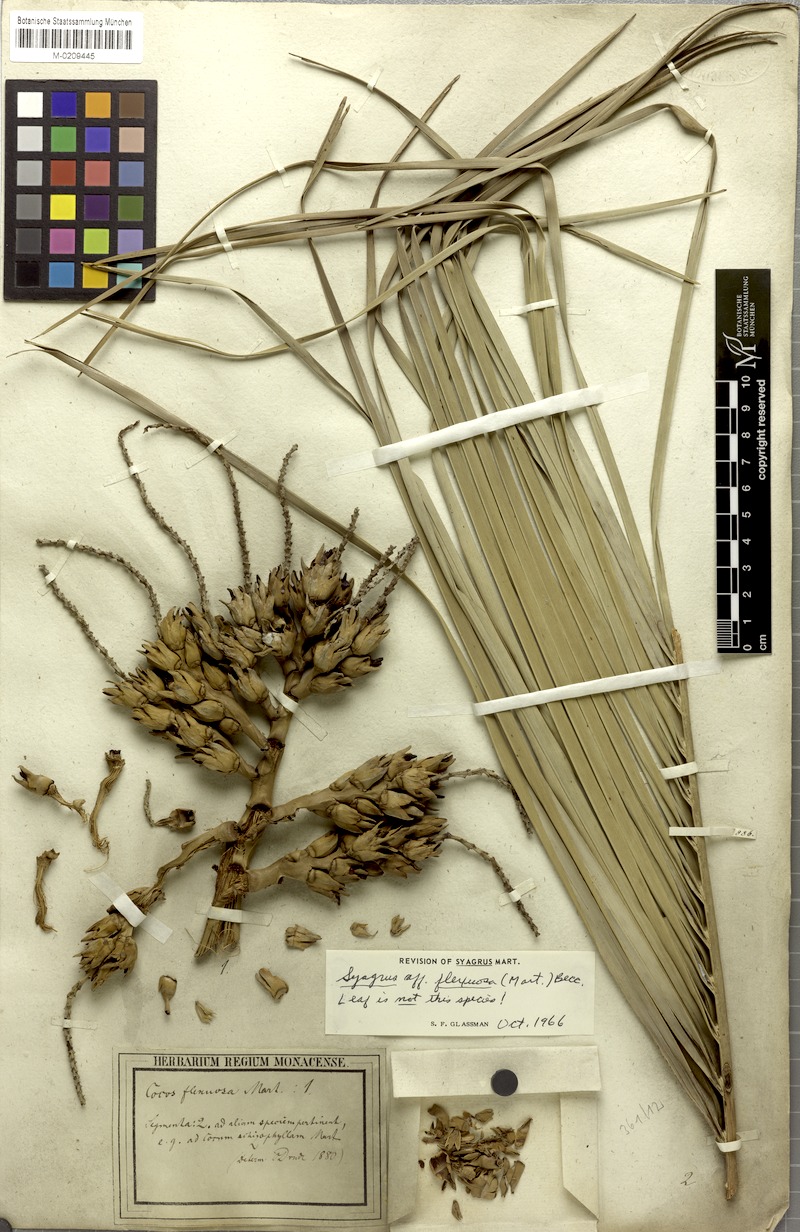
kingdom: Plantae
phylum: Tracheophyta
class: Liliopsida
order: Arecales
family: Arecaceae
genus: Syagrus
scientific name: Syagrus flexuosa
